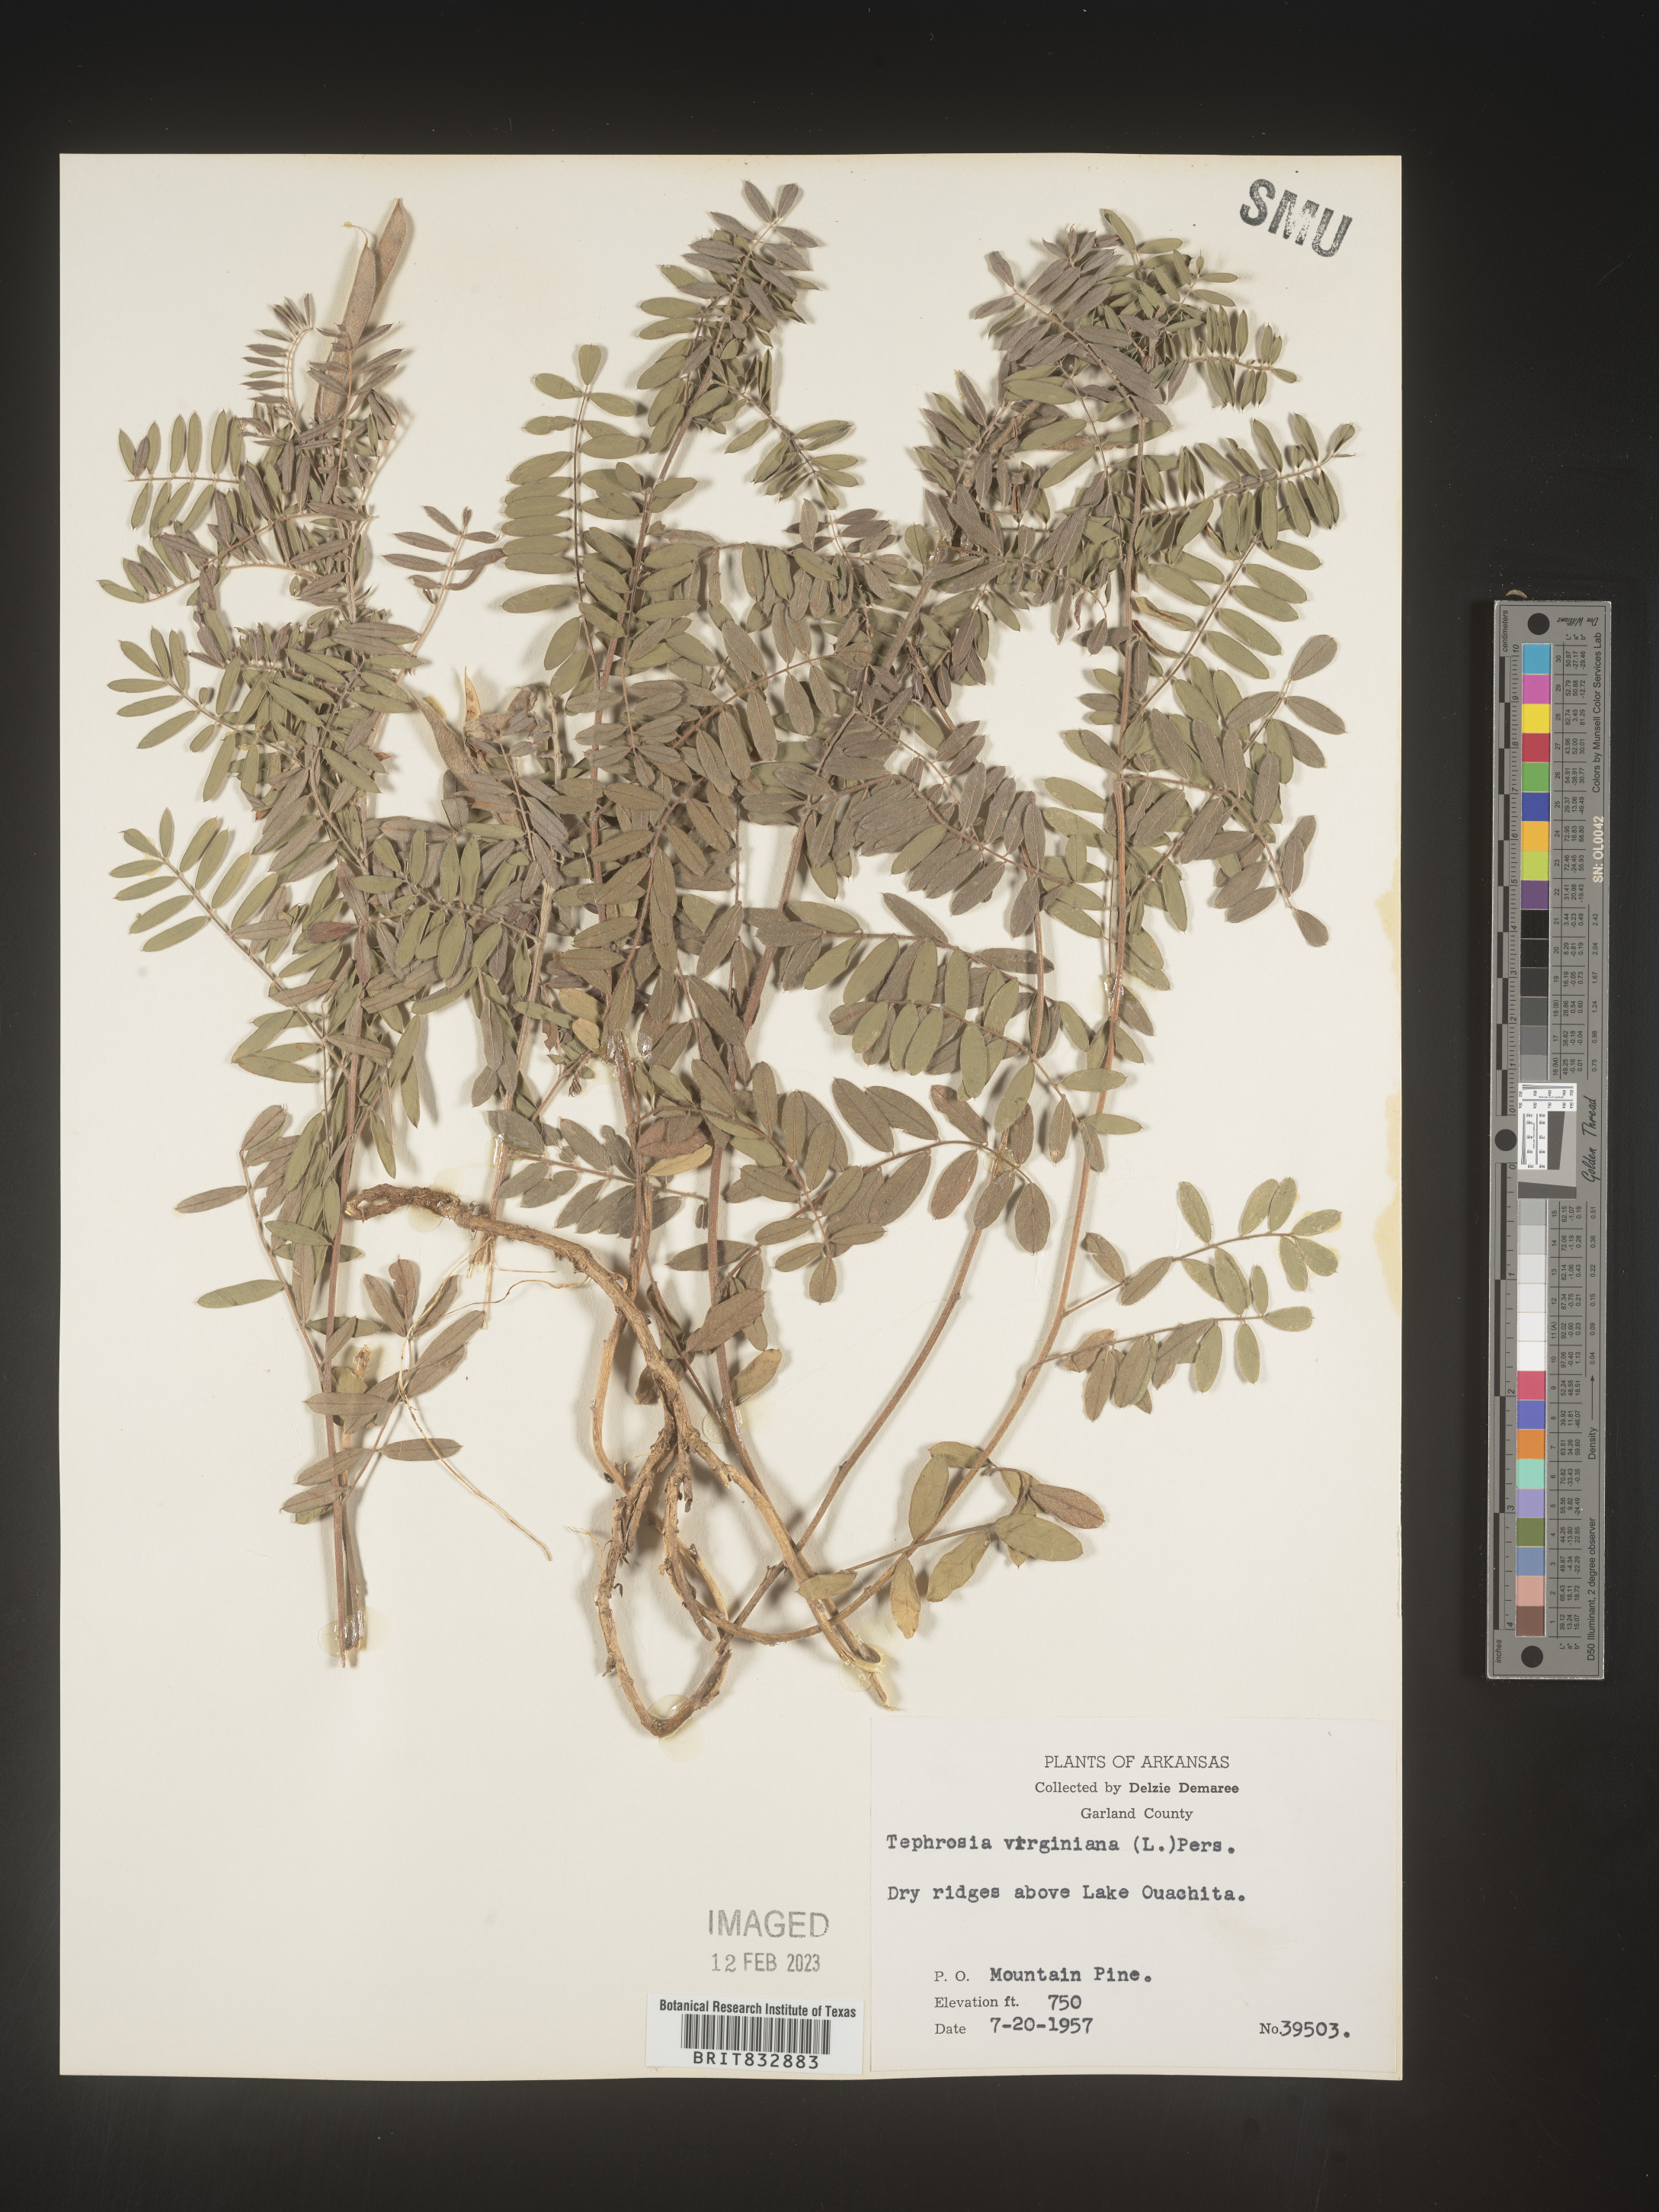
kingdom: Plantae
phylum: Tracheophyta
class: Magnoliopsida
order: Fabales
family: Fabaceae
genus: Tephrosia
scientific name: Tephrosia virginiana
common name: Rabbit-pea
